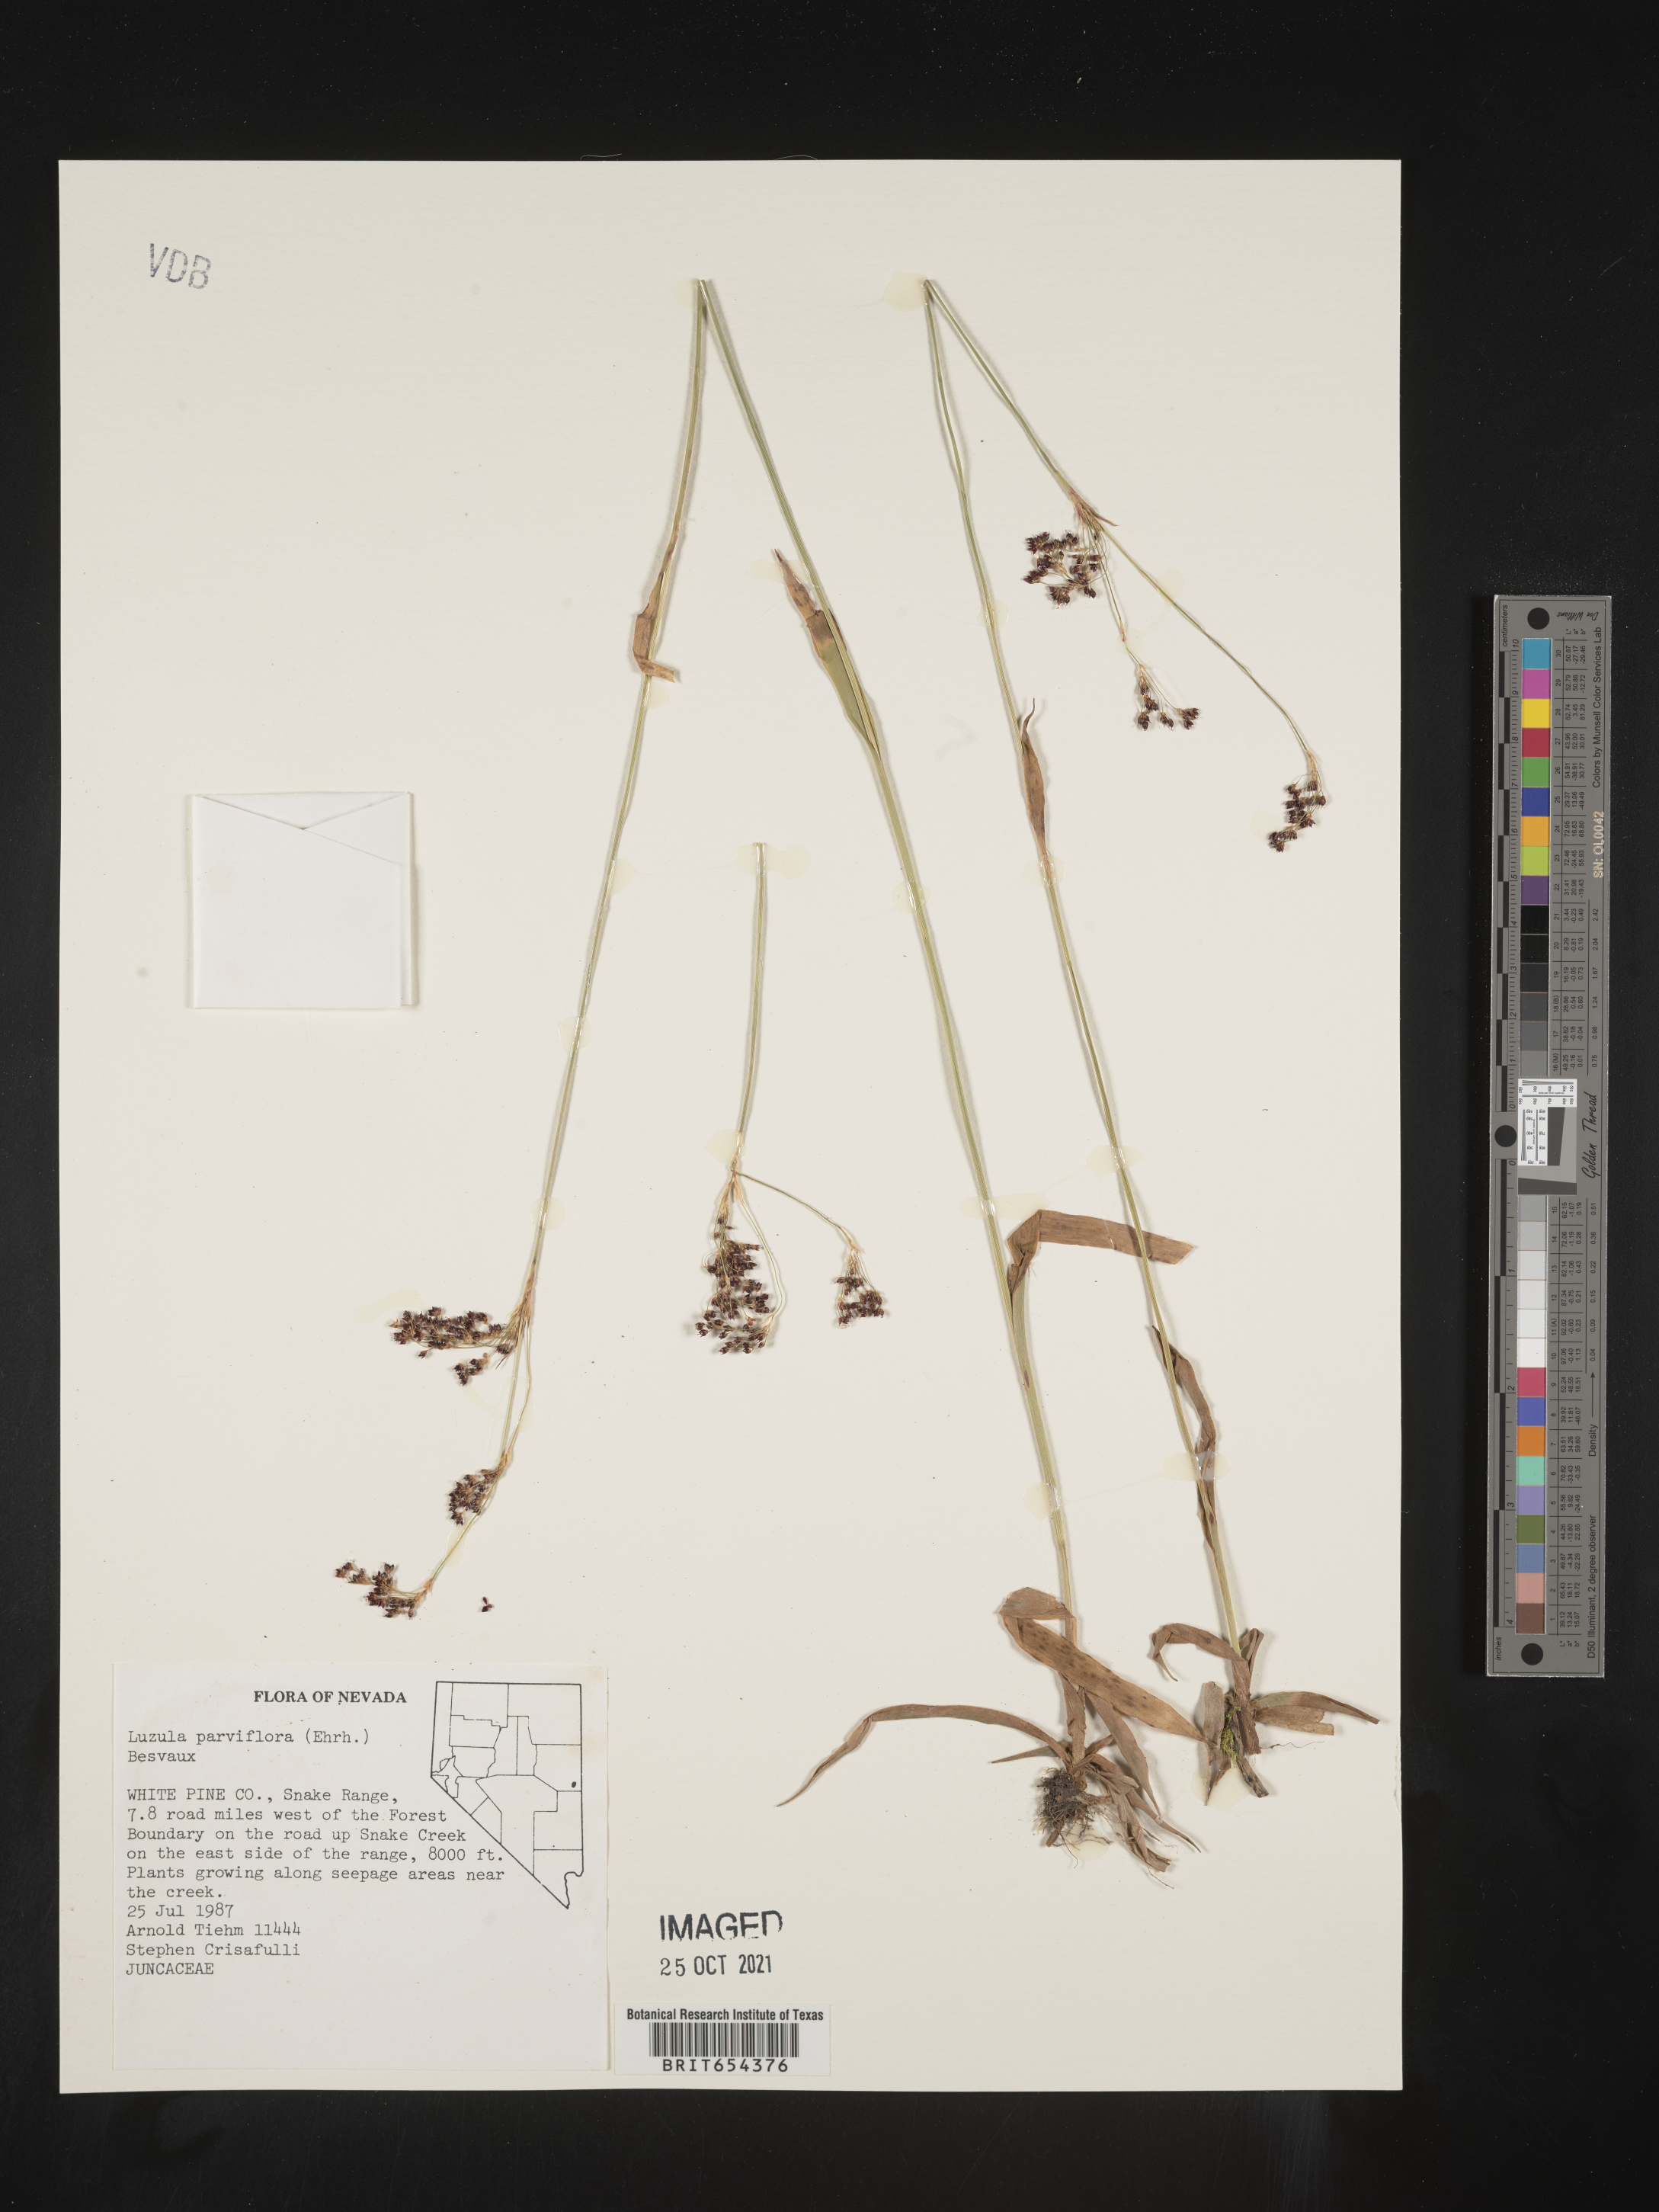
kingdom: Plantae
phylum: Tracheophyta
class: Liliopsida
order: Poales
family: Juncaceae
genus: Luzula
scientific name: Luzula parviflora
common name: Millet woodrush
